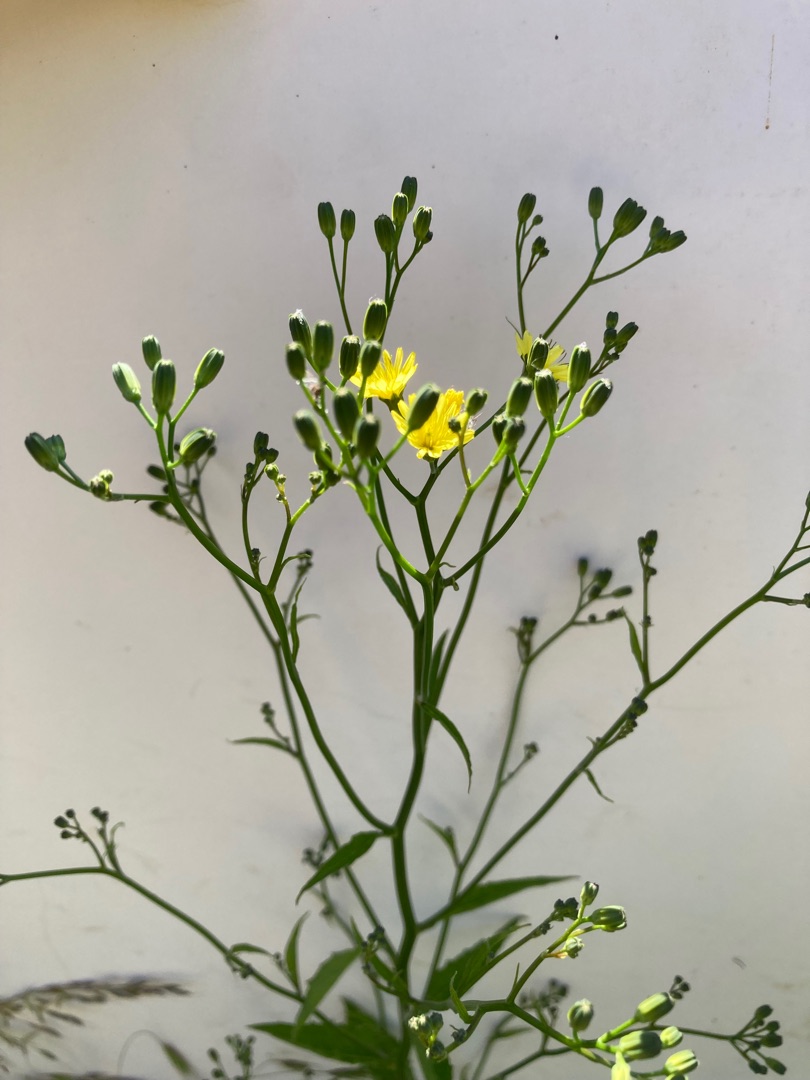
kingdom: Plantae
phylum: Tracheophyta
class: Magnoliopsida
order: Asterales
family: Asteraceae
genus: Lapsana
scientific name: Lapsana communis
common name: Haremad
